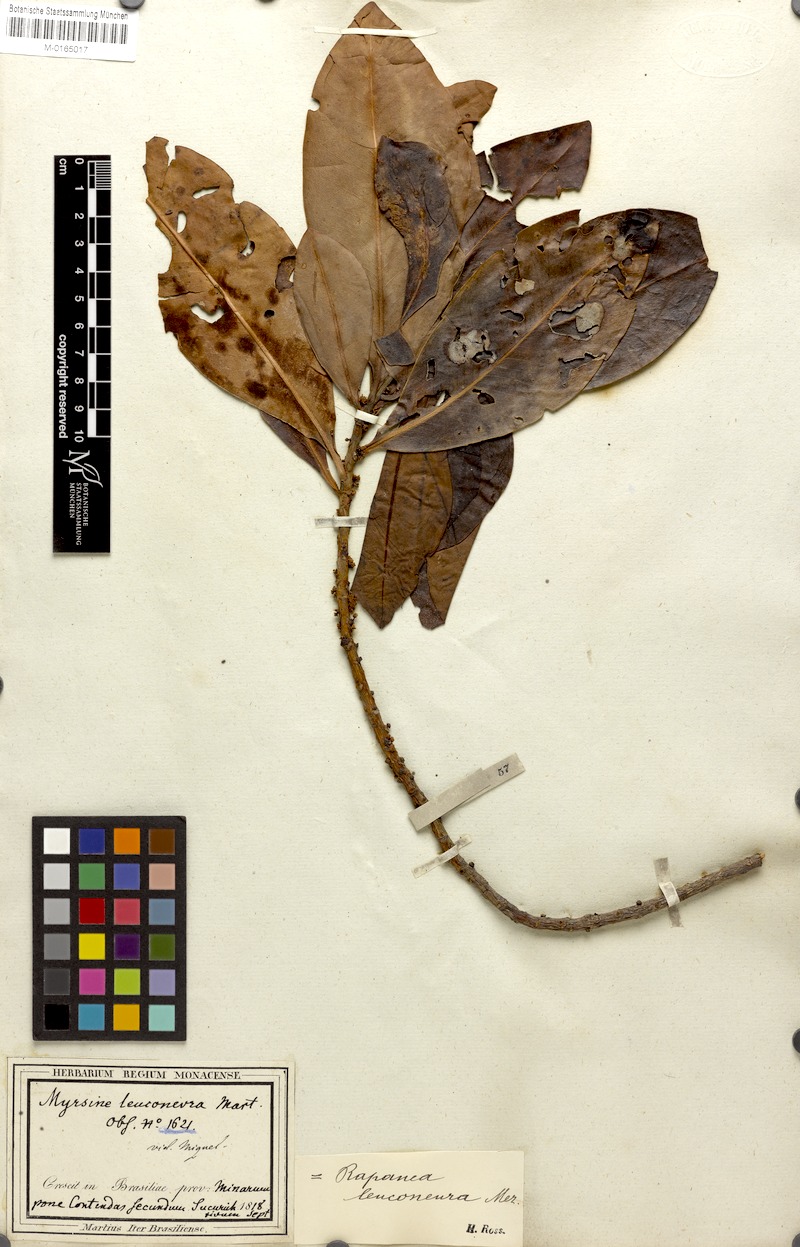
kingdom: Plantae
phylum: Tracheophyta
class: Magnoliopsida
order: Ericales
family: Primulaceae
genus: Myrsine
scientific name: Myrsine leuconeura
